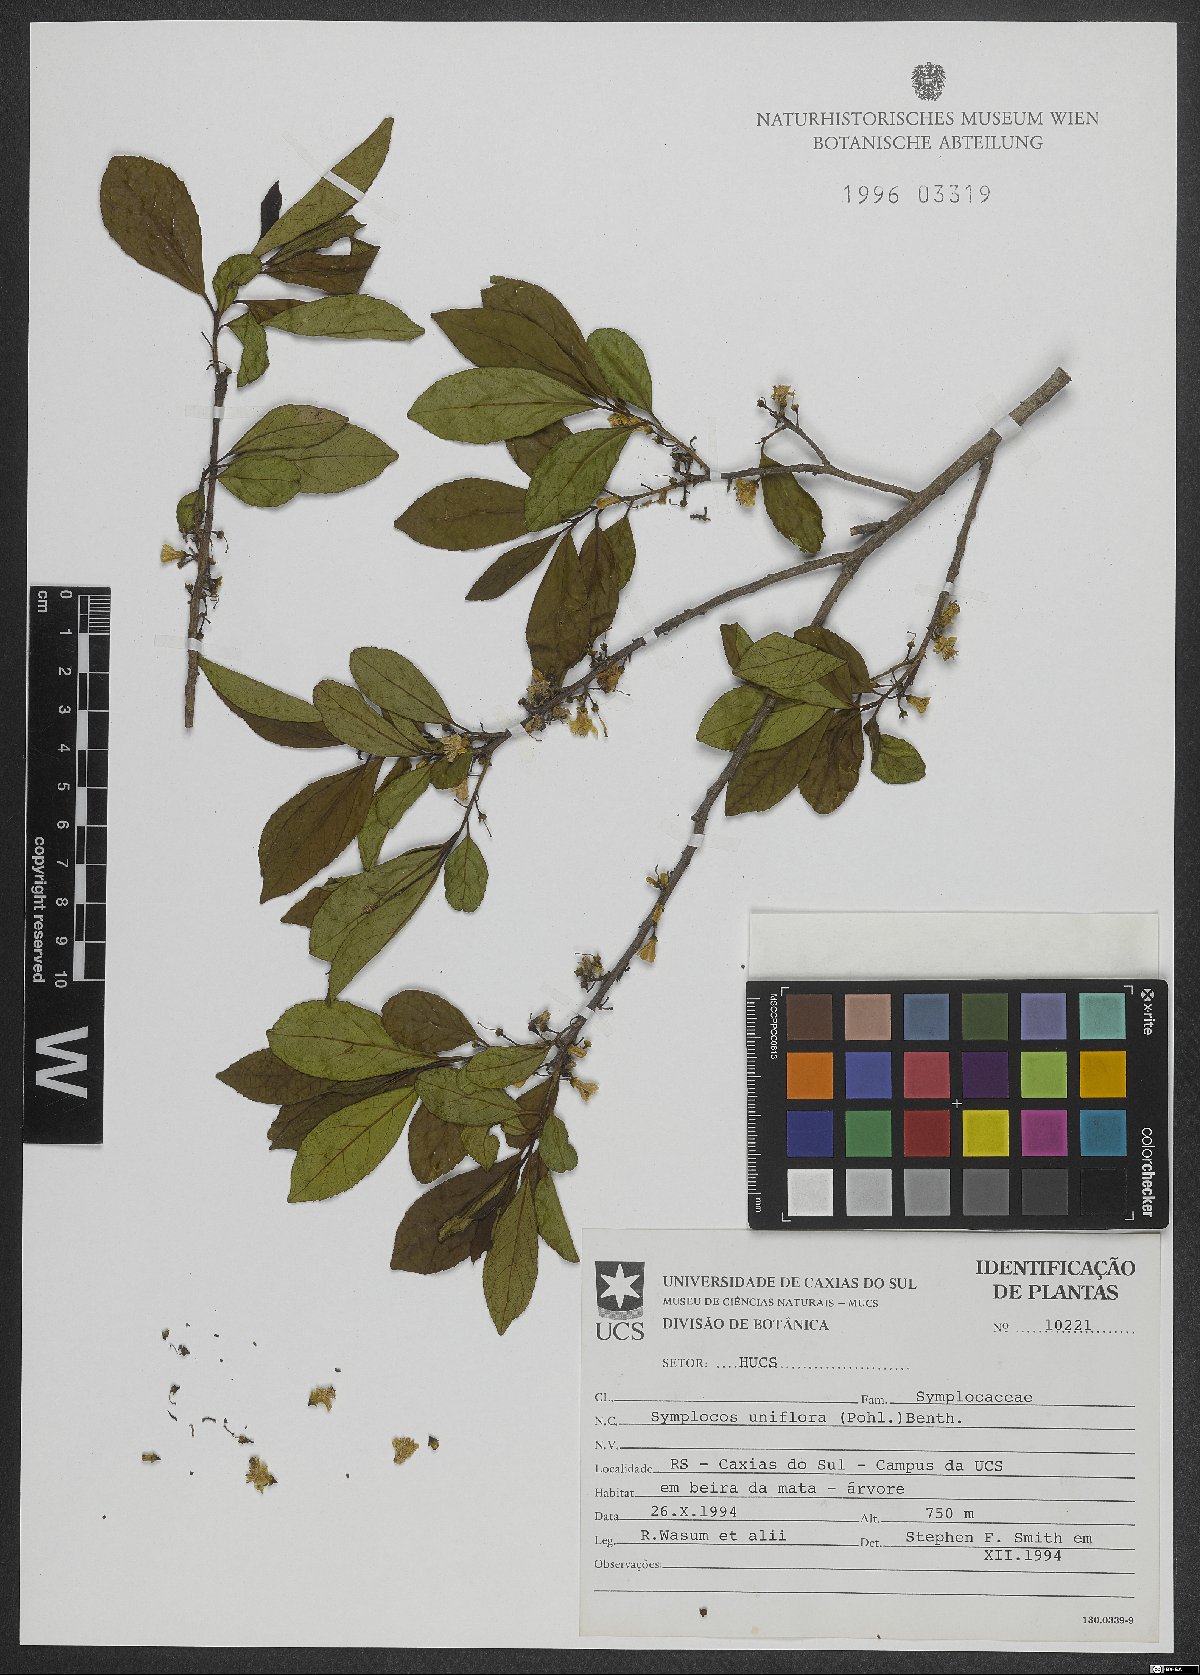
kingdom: Plantae
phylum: Tracheophyta
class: Magnoliopsida
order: Ericales
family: Symplocaceae
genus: Symplocos
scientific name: Symplocos uniflora
